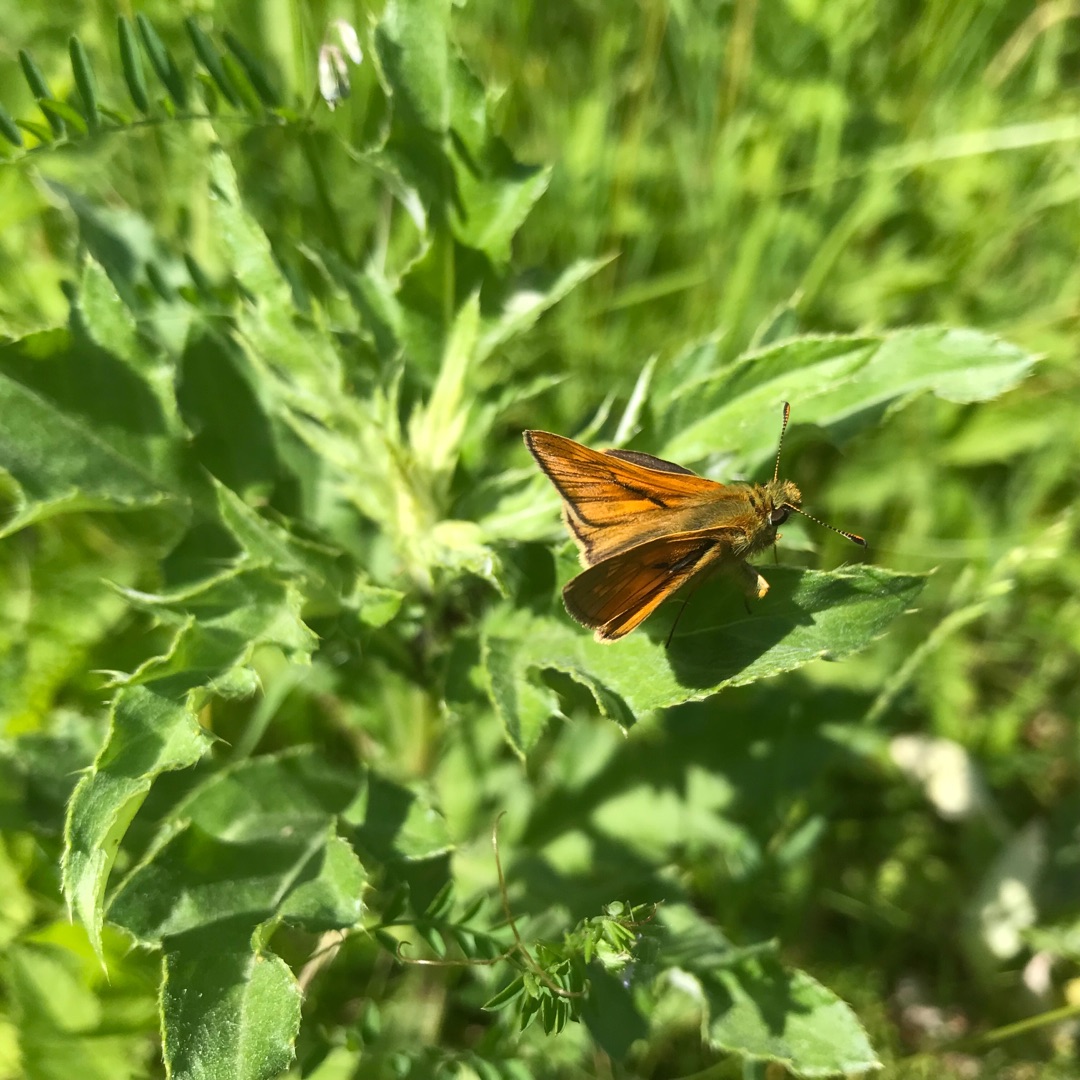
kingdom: Animalia
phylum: Arthropoda
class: Insecta
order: Lepidoptera
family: Hesperiidae
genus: Ochlodes
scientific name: Ochlodes venata
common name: Stor bredpande
